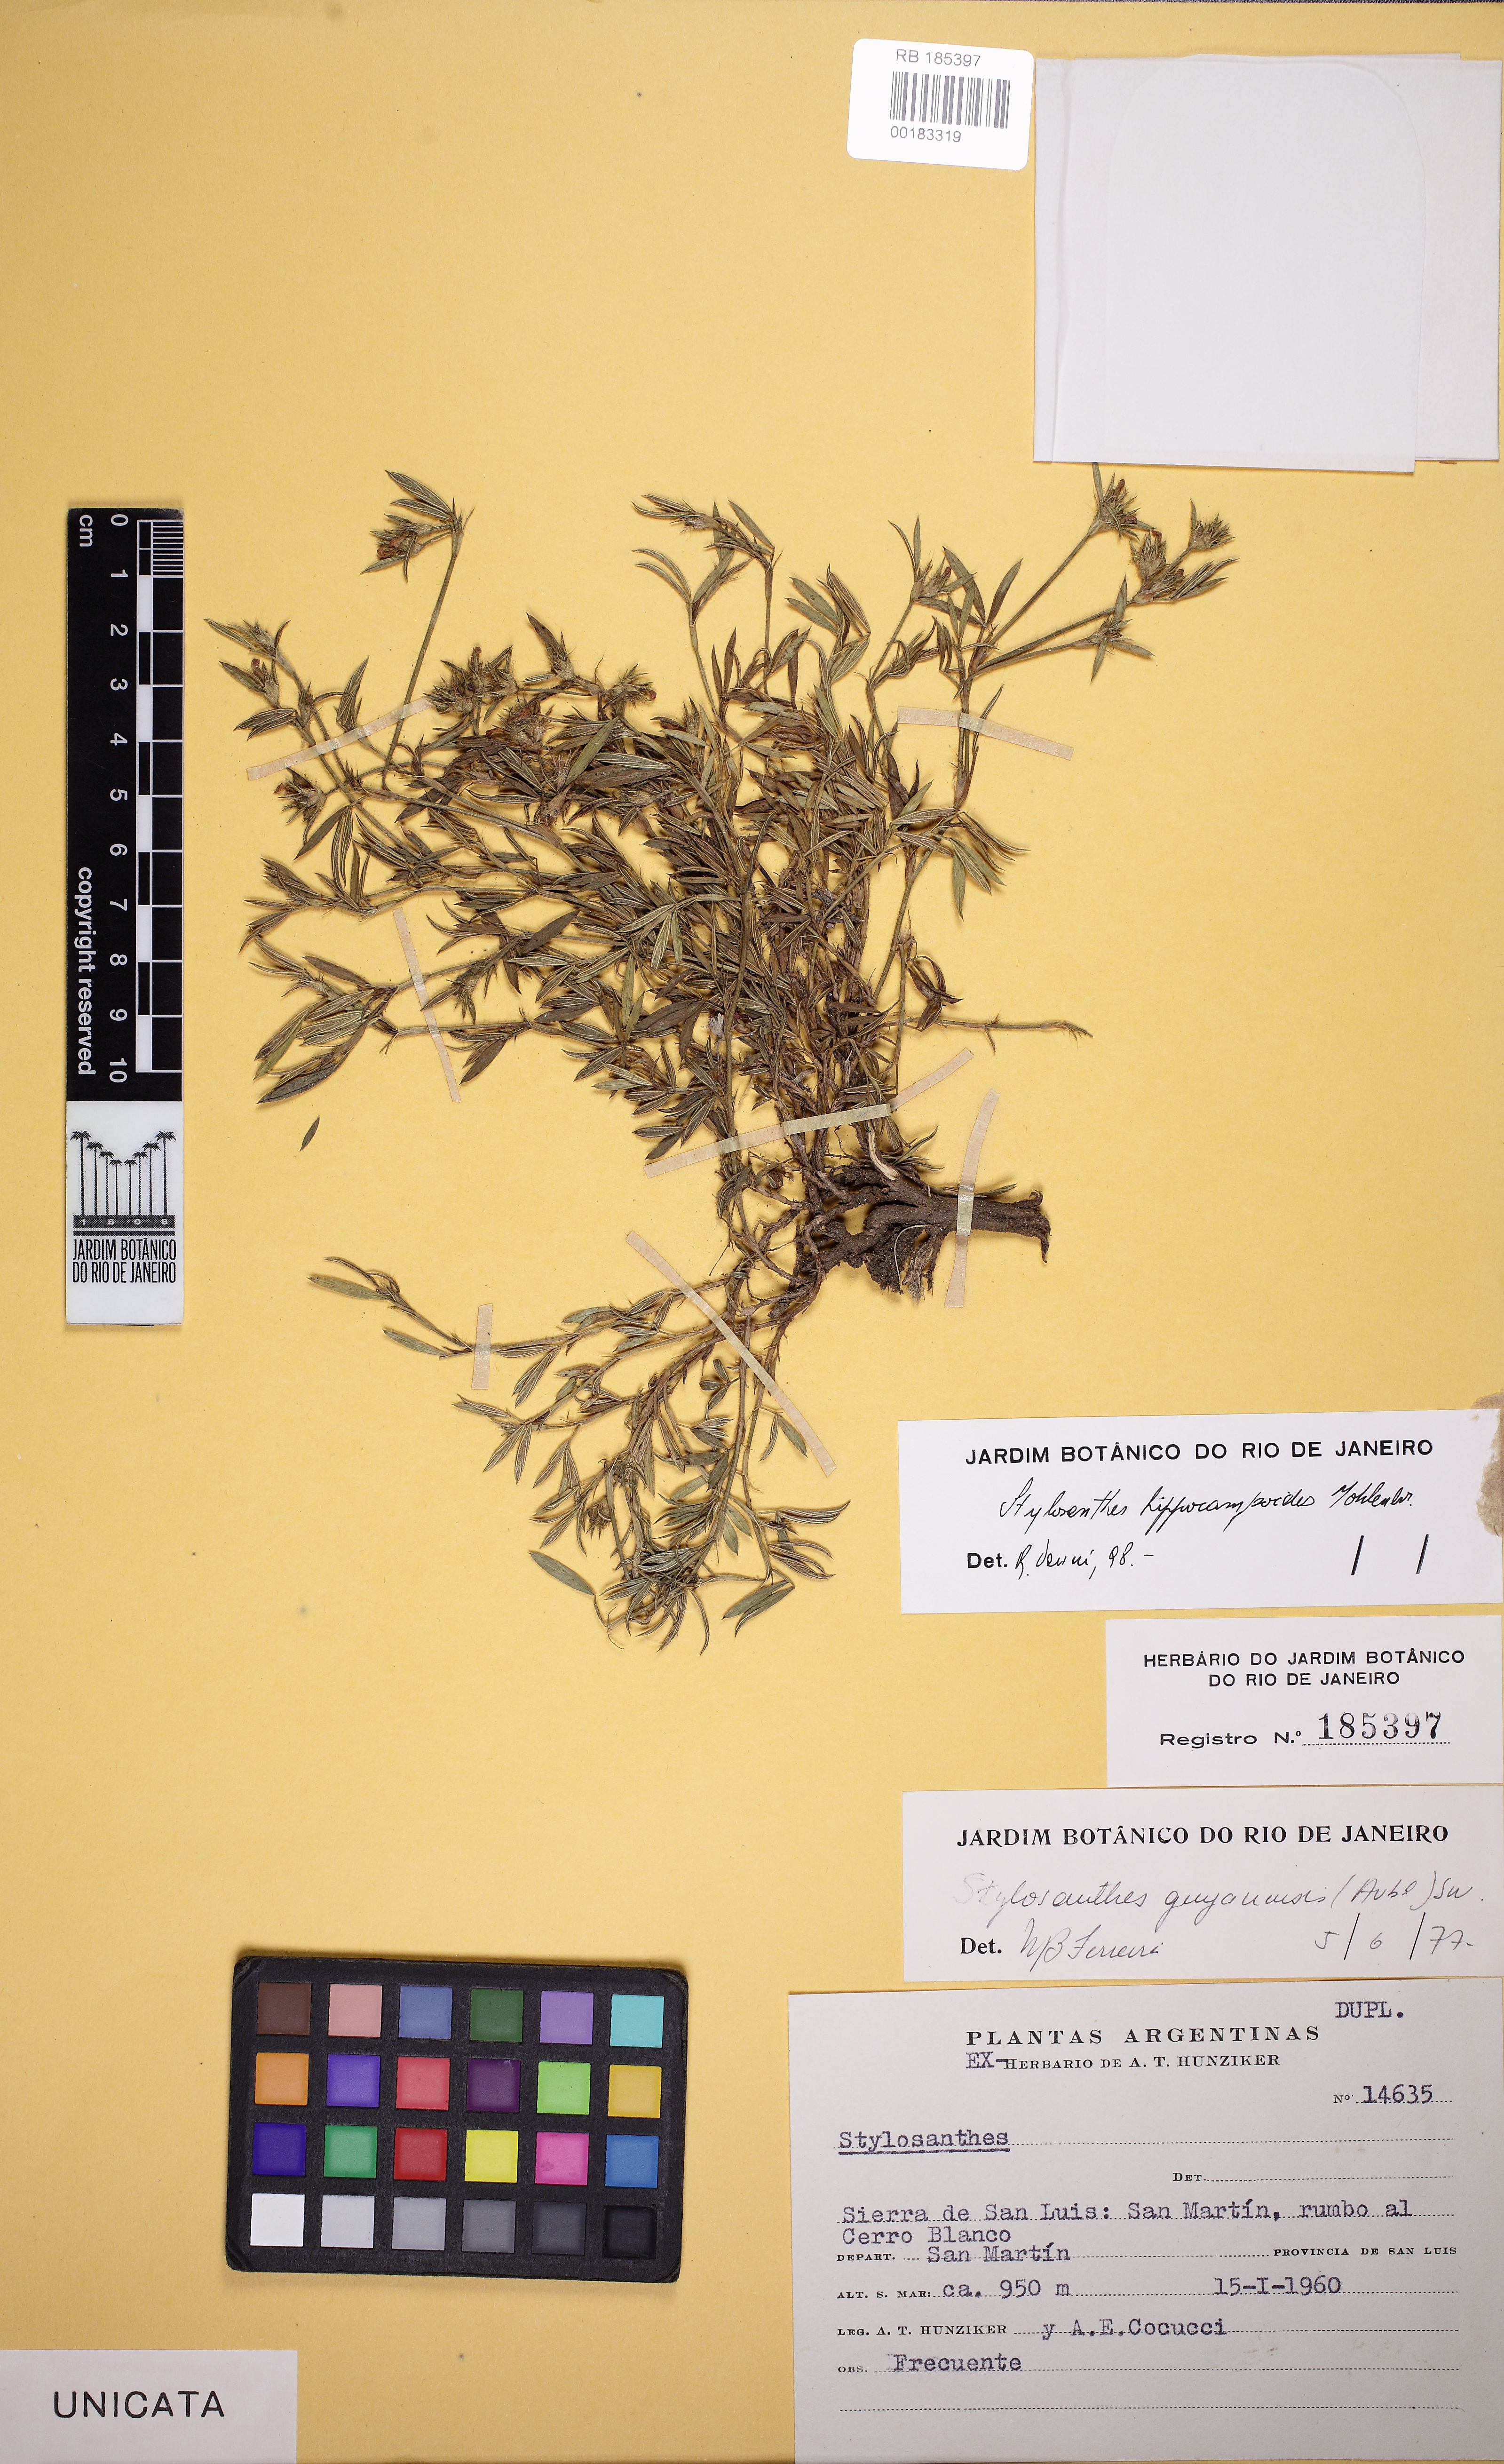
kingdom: Plantae
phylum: Tracheophyta
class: Magnoliopsida
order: Fabales
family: Fabaceae
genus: Stylosanthes
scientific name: Stylosanthes hippocampoides
